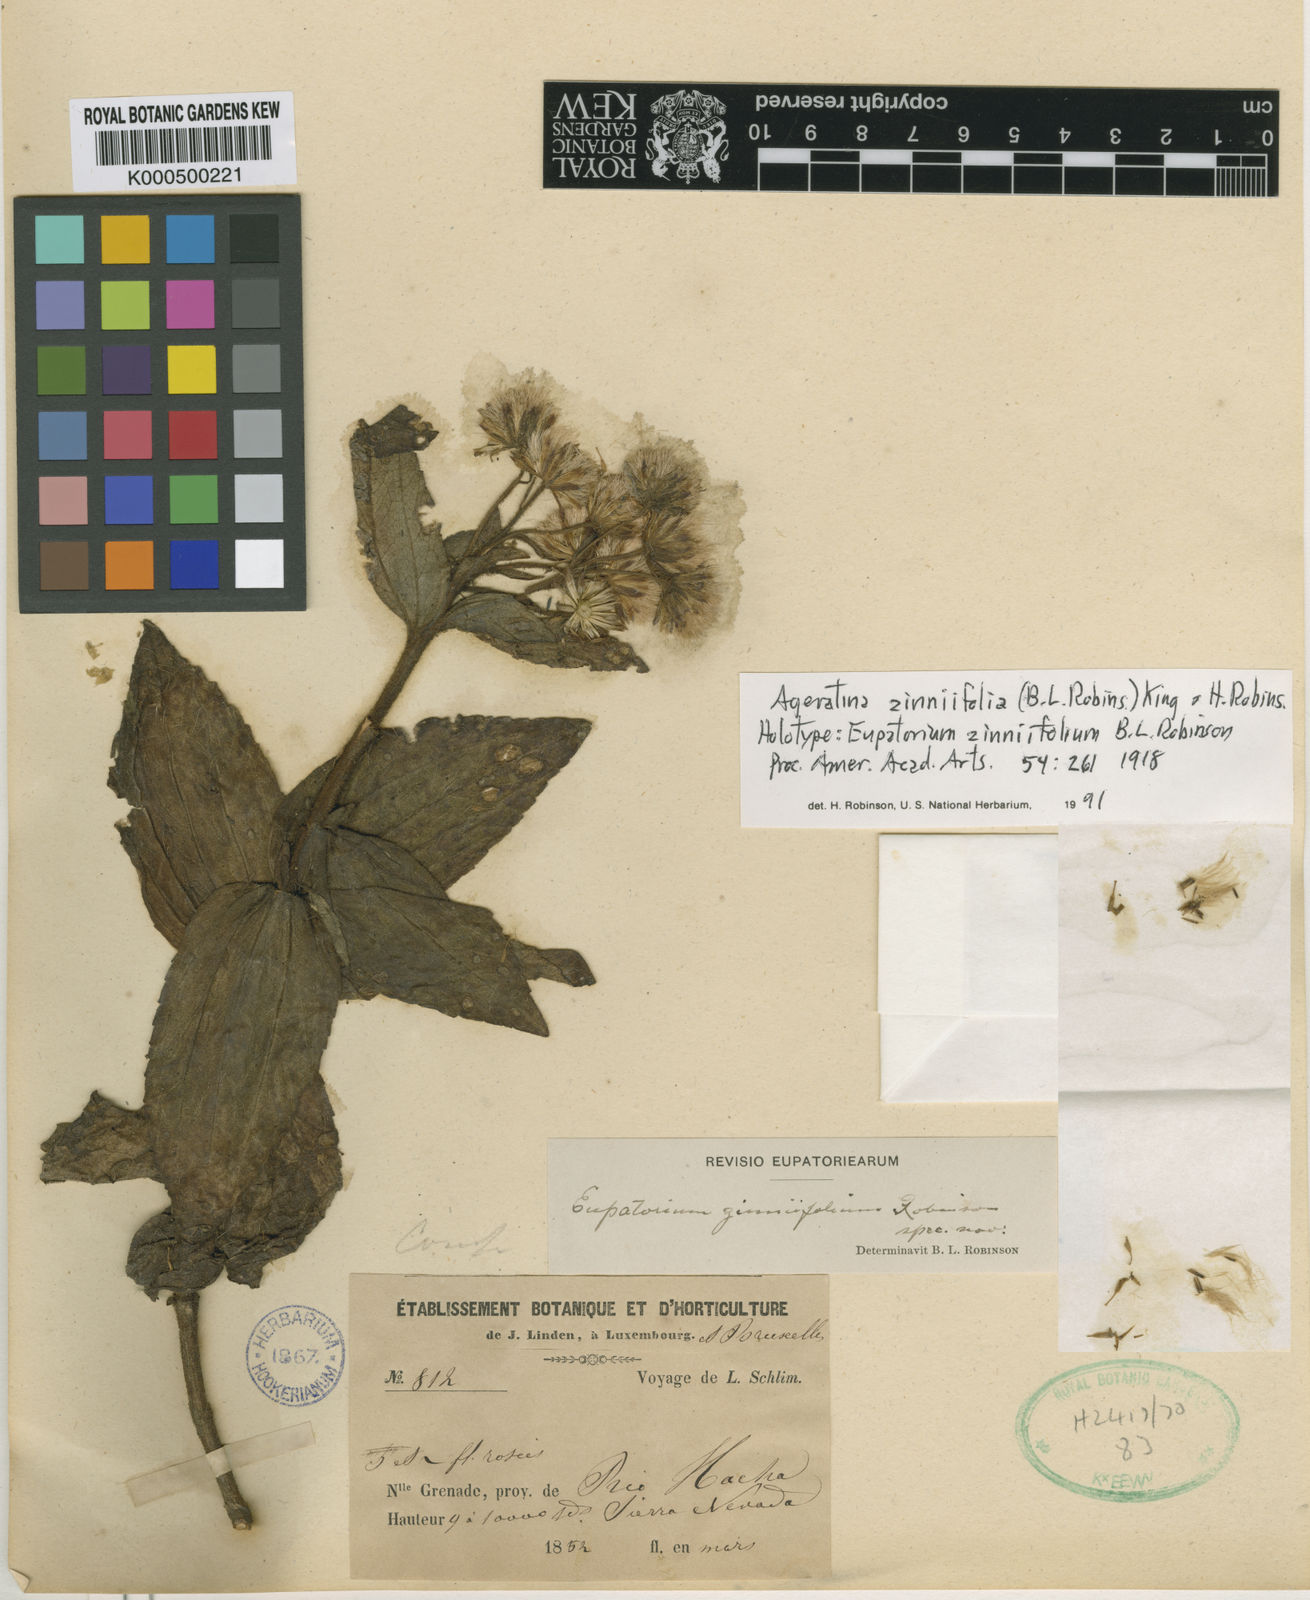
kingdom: Plantae
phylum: Tracheophyta
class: Magnoliopsida
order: Asterales
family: Asteraceae
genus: Ageratina
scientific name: Ageratina zinniifolia
